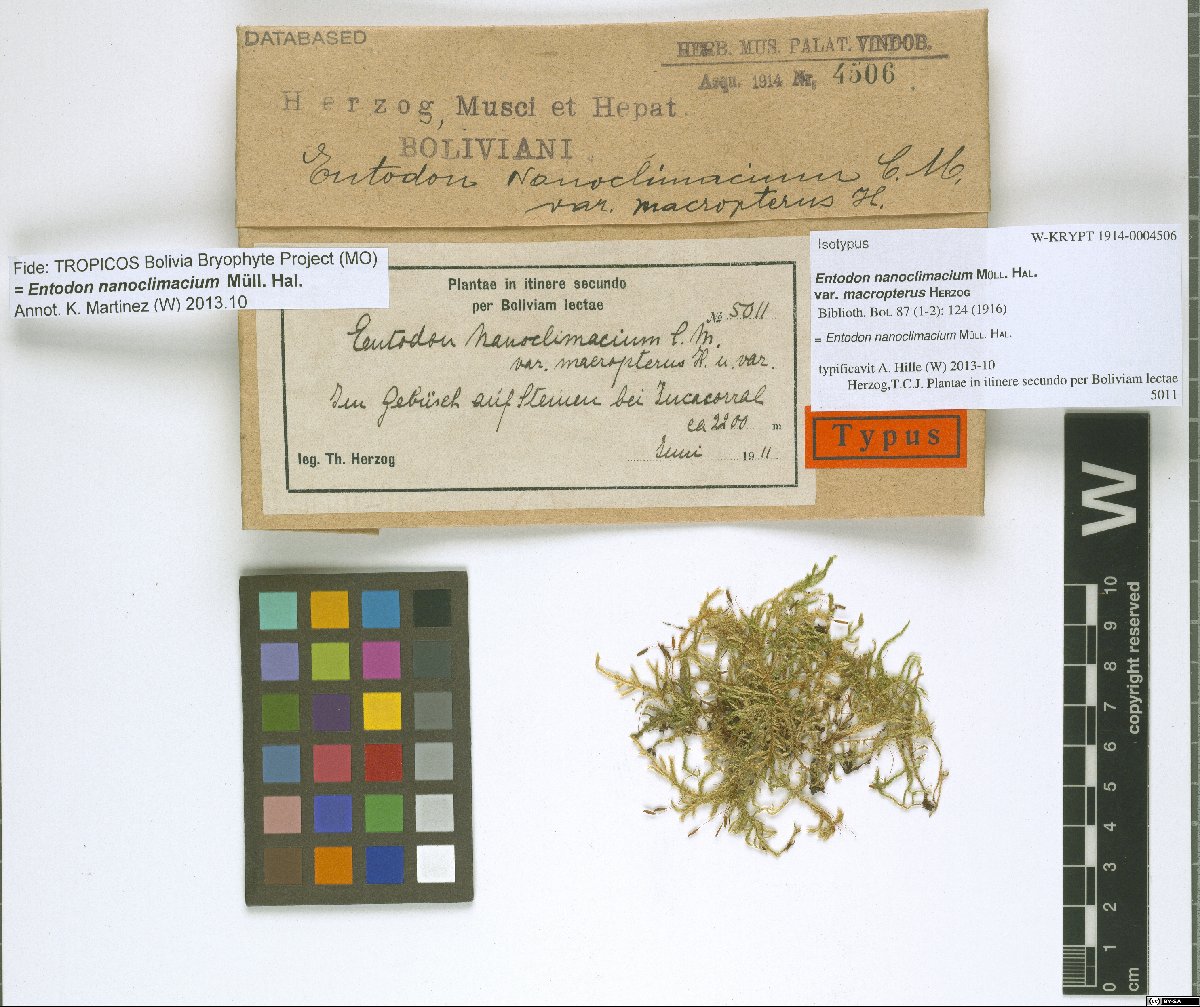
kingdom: Plantae
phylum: Bryophyta
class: Bryopsida
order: Hypnales
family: Entodontaceae
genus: Entodon
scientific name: Entodon nanoclimacium
